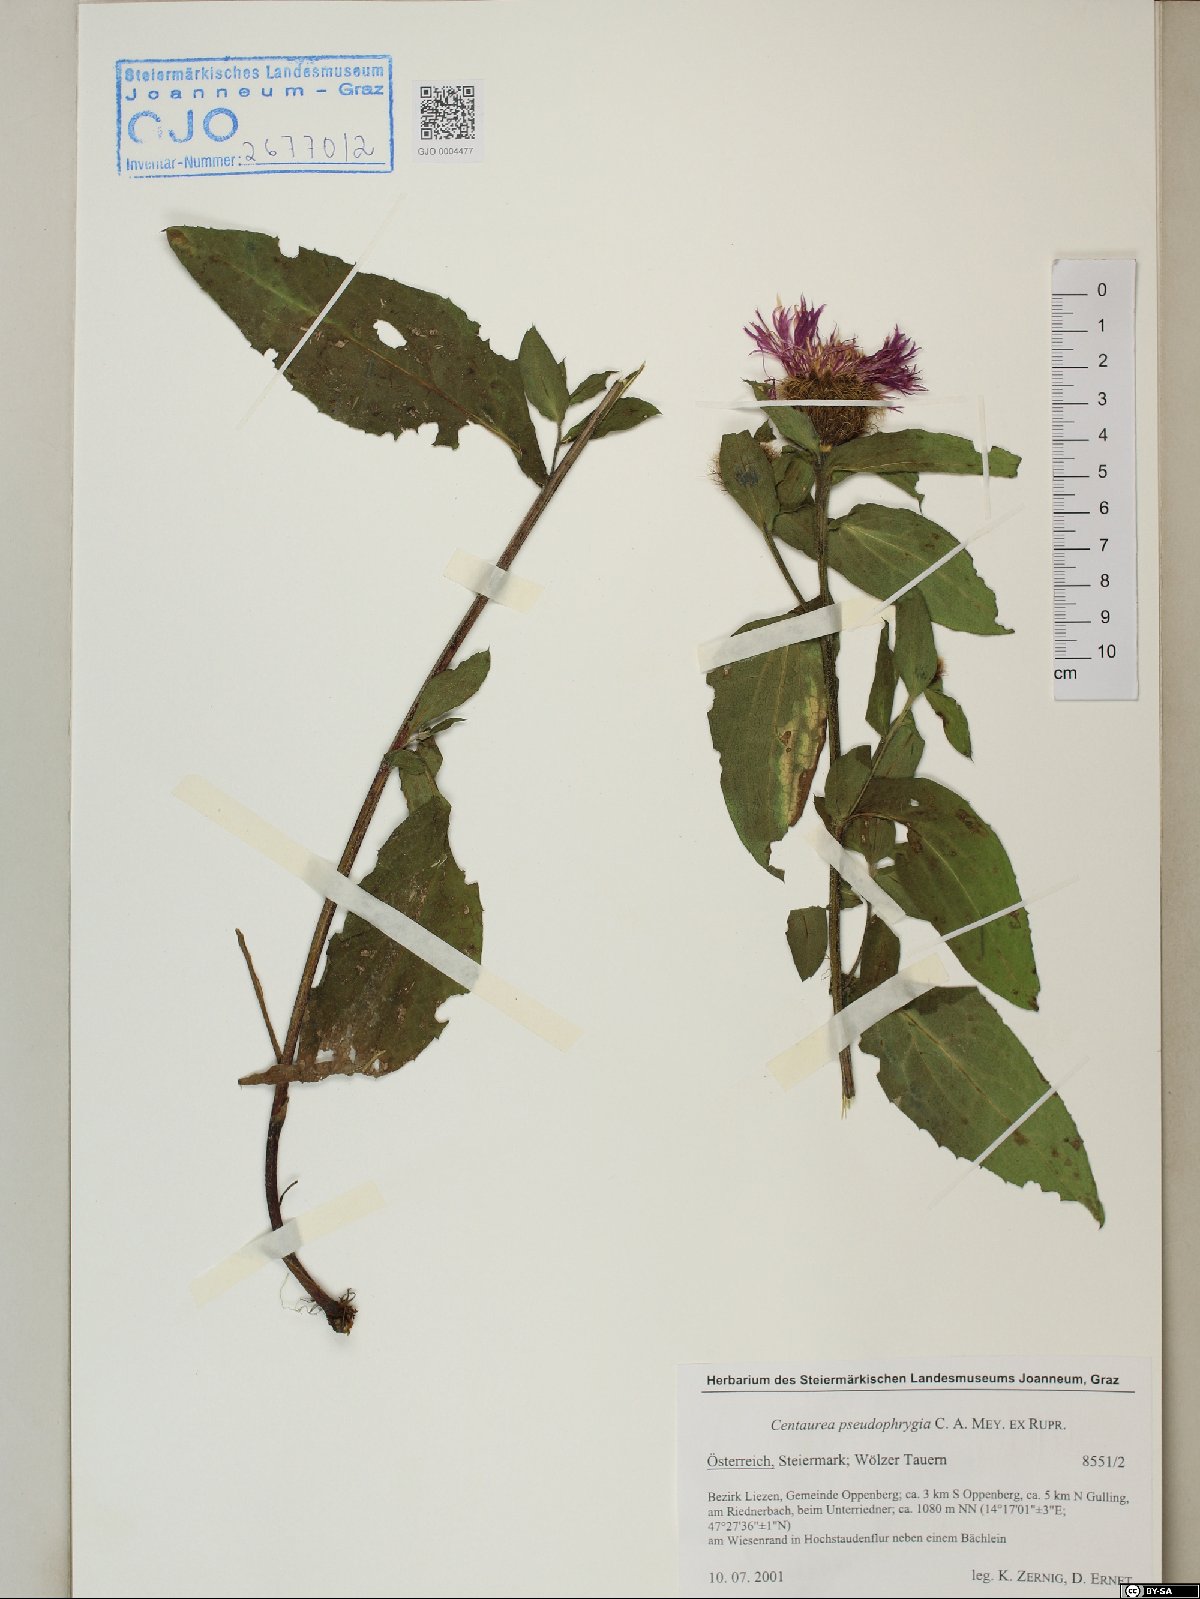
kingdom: Plantae
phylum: Tracheophyta
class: Magnoliopsida
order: Asterales
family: Asteraceae
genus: Centaurea
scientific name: Centaurea pseudophrygia
